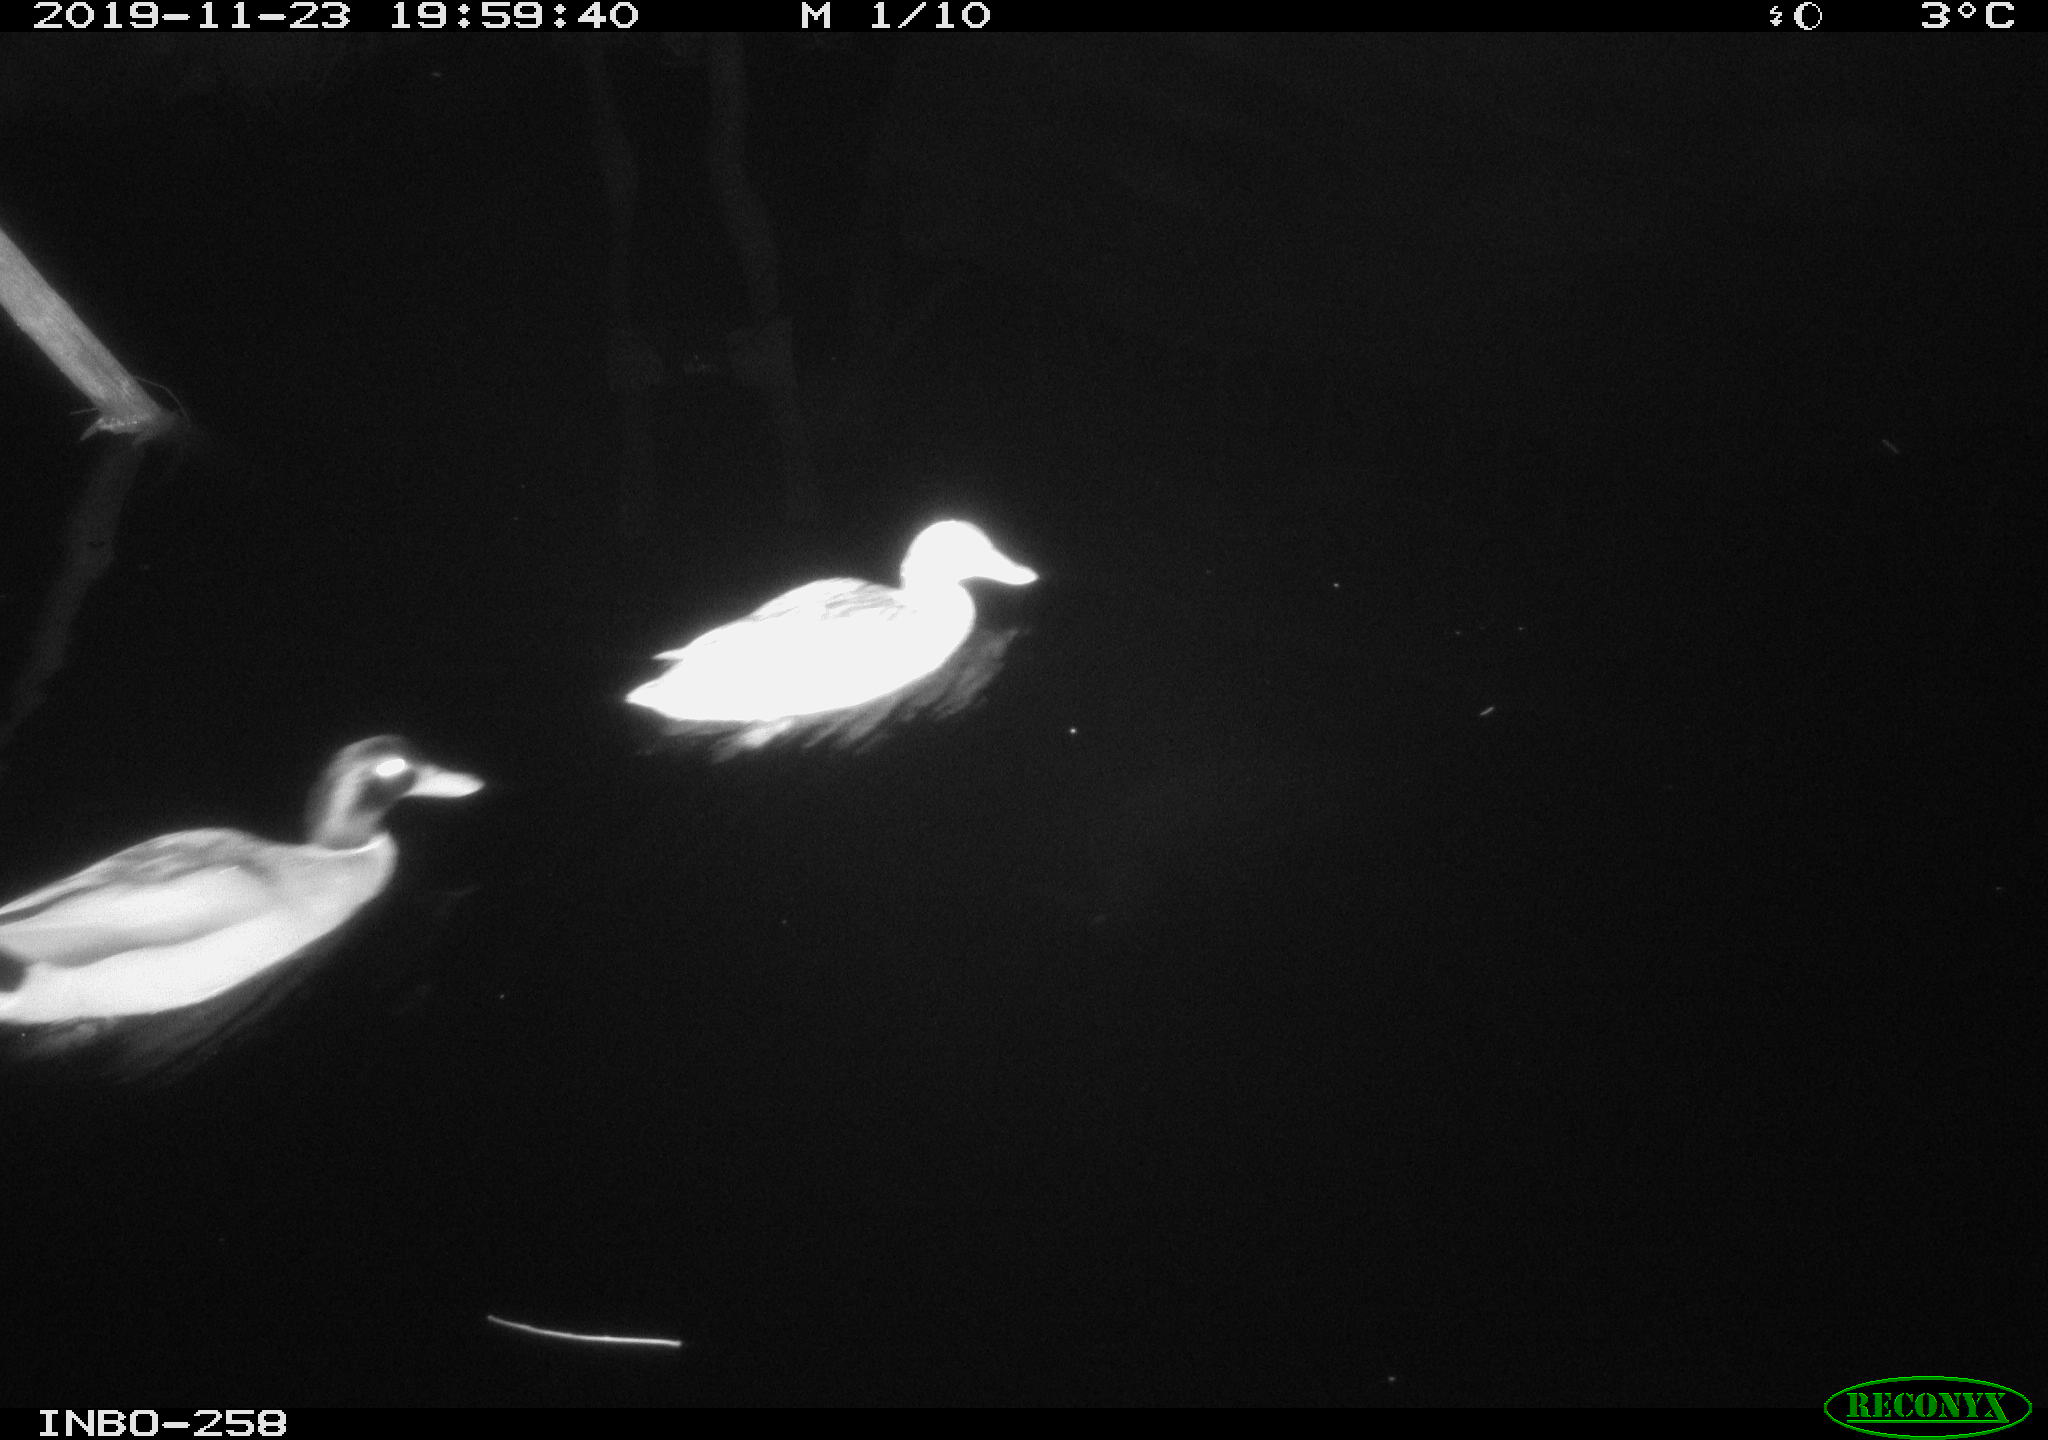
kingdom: Animalia
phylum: Chordata
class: Aves
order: Anseriformes
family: Anatidae
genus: Anas
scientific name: Anas platyrhynchos
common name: Mallard
